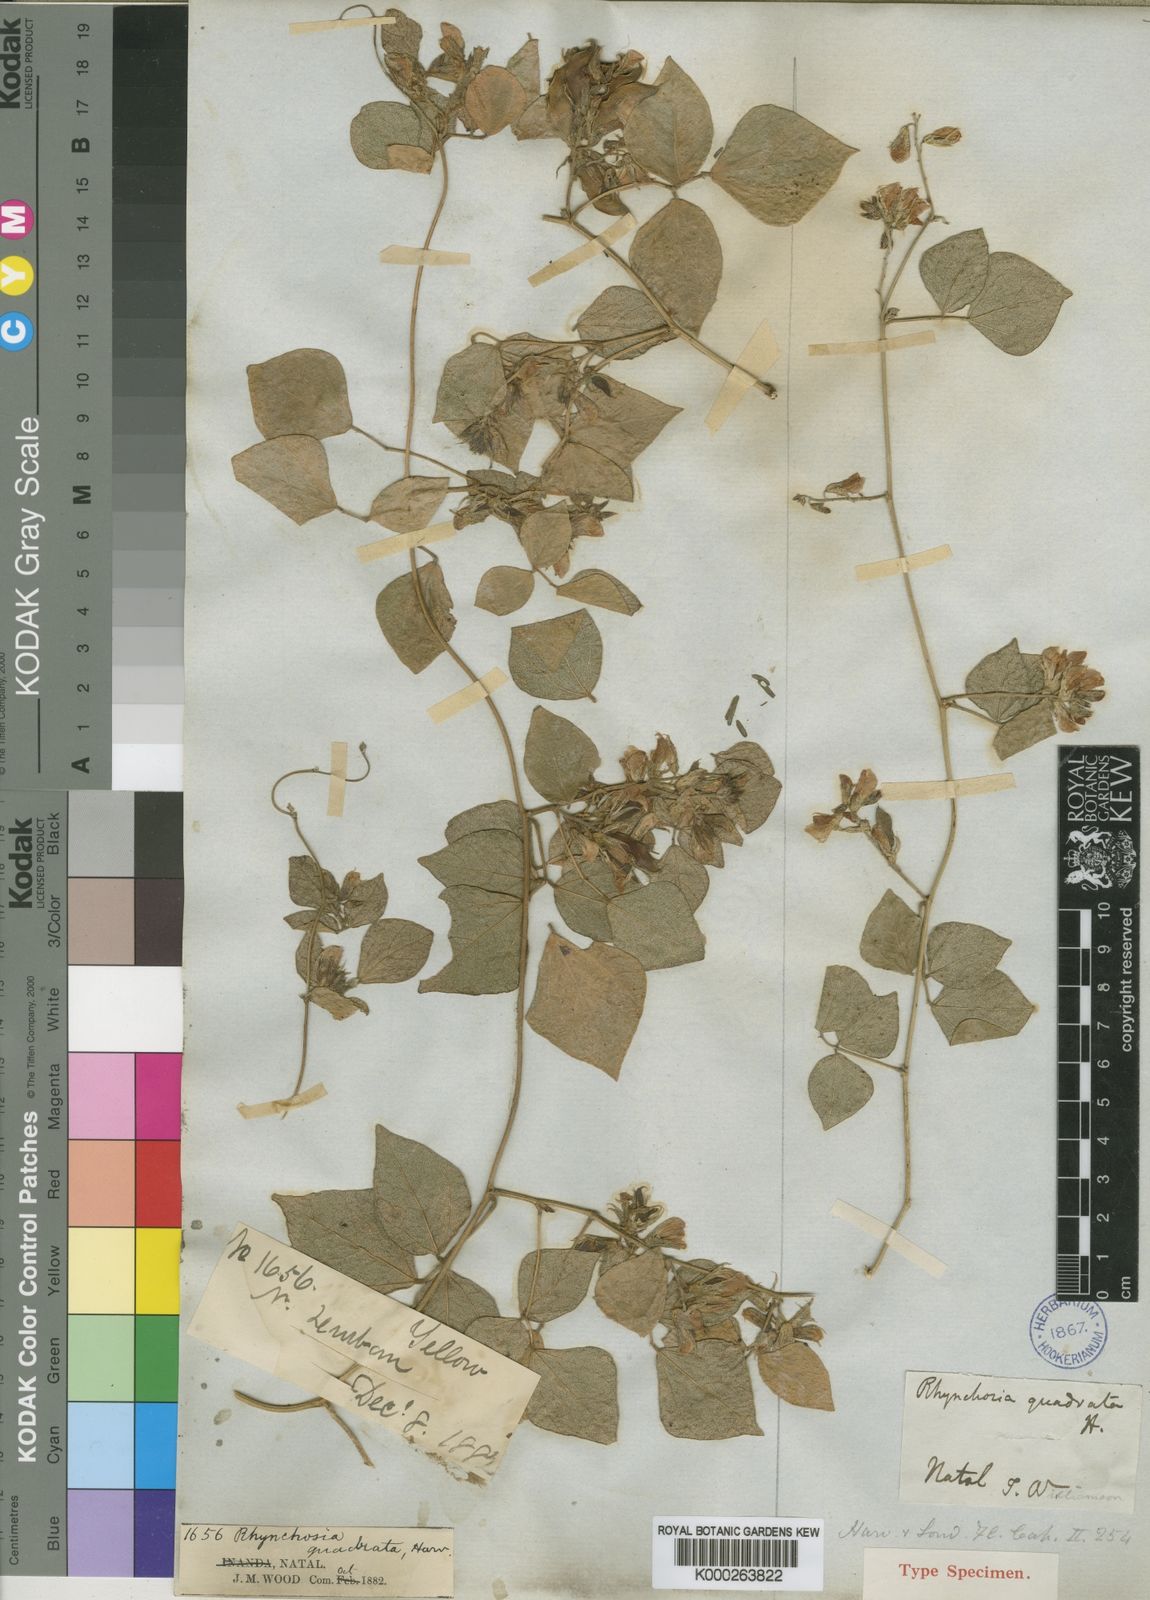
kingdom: Plantae
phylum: Tracheophyta
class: Magnoliopsida
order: Fabales
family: Fabaceae
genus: Rhynchosia
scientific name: Rhynchosia quadrata
